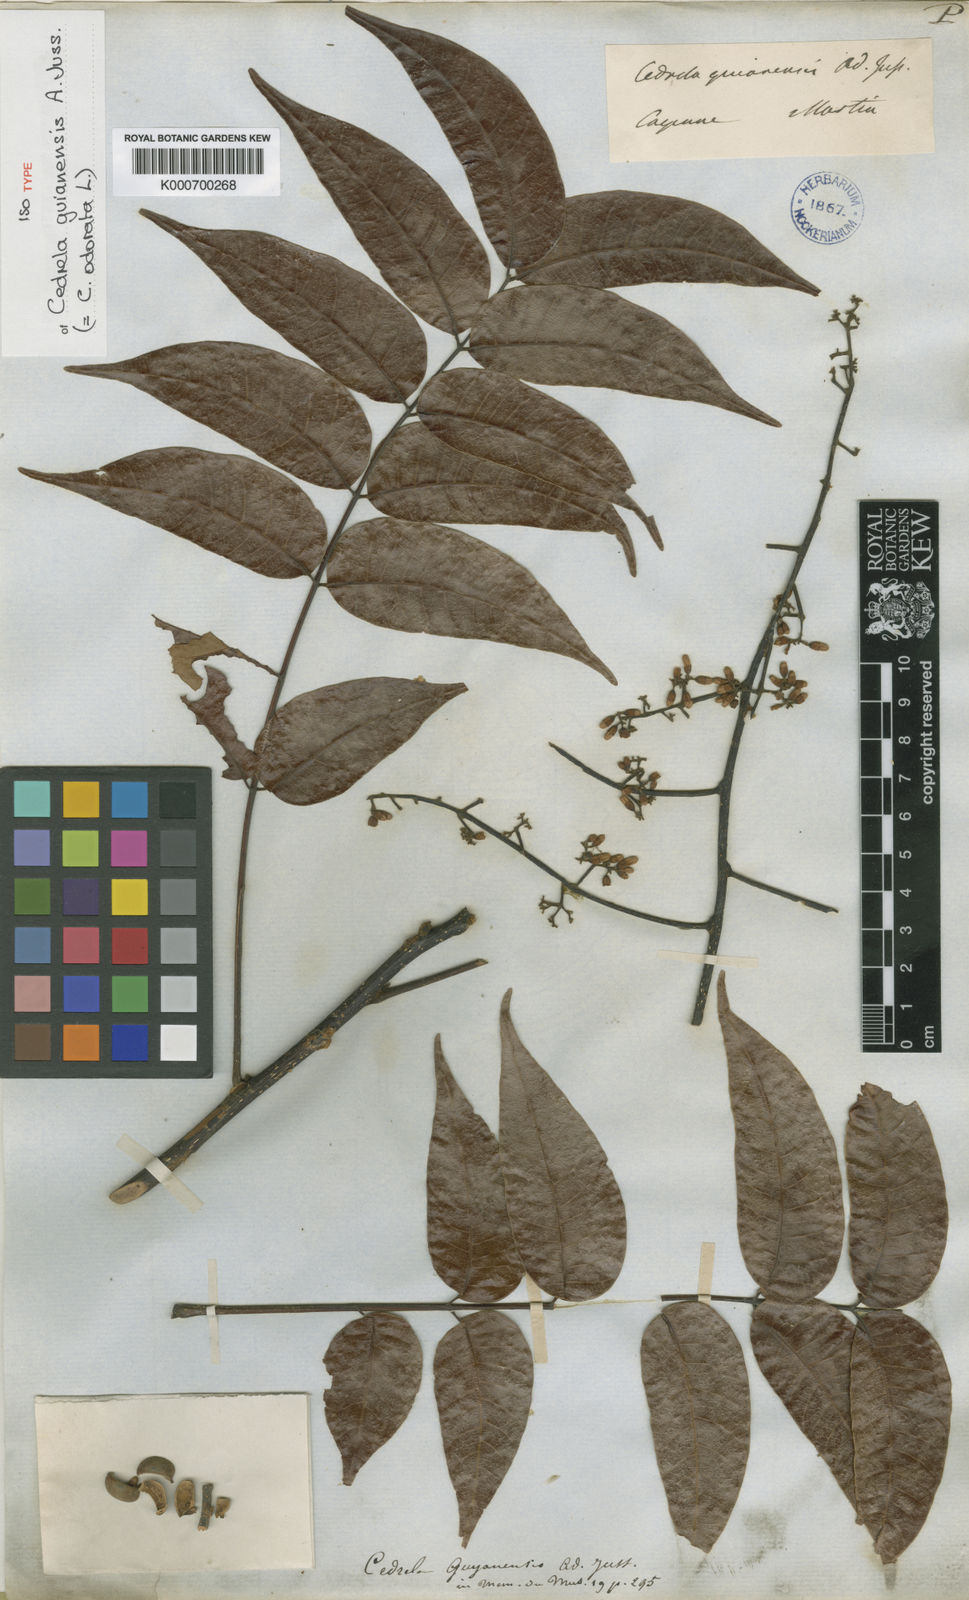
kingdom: Plantae
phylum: Tracheophyta
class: Magnoliopsida
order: Sapindales
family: Meliaceae
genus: Cedrela
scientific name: Cedrela odorata
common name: Red cedar
